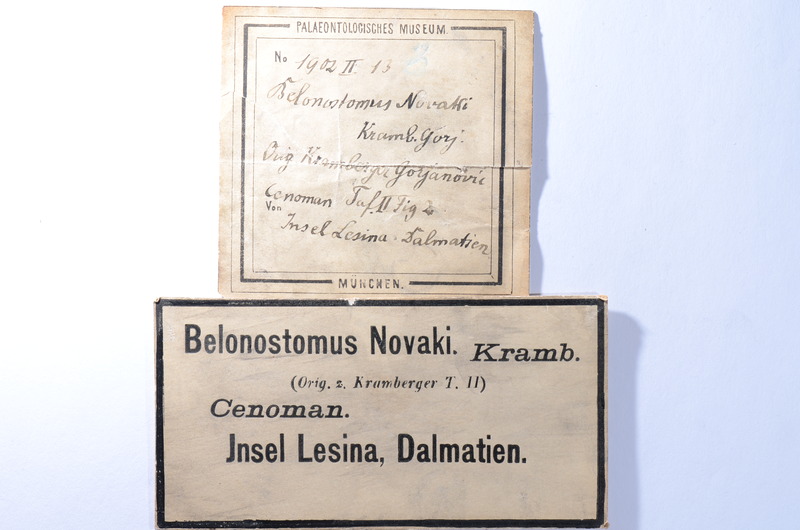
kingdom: Animalia
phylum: Chordata
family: Aspidorhynchidae
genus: Belonostomus
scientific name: Belonostomus novaki
